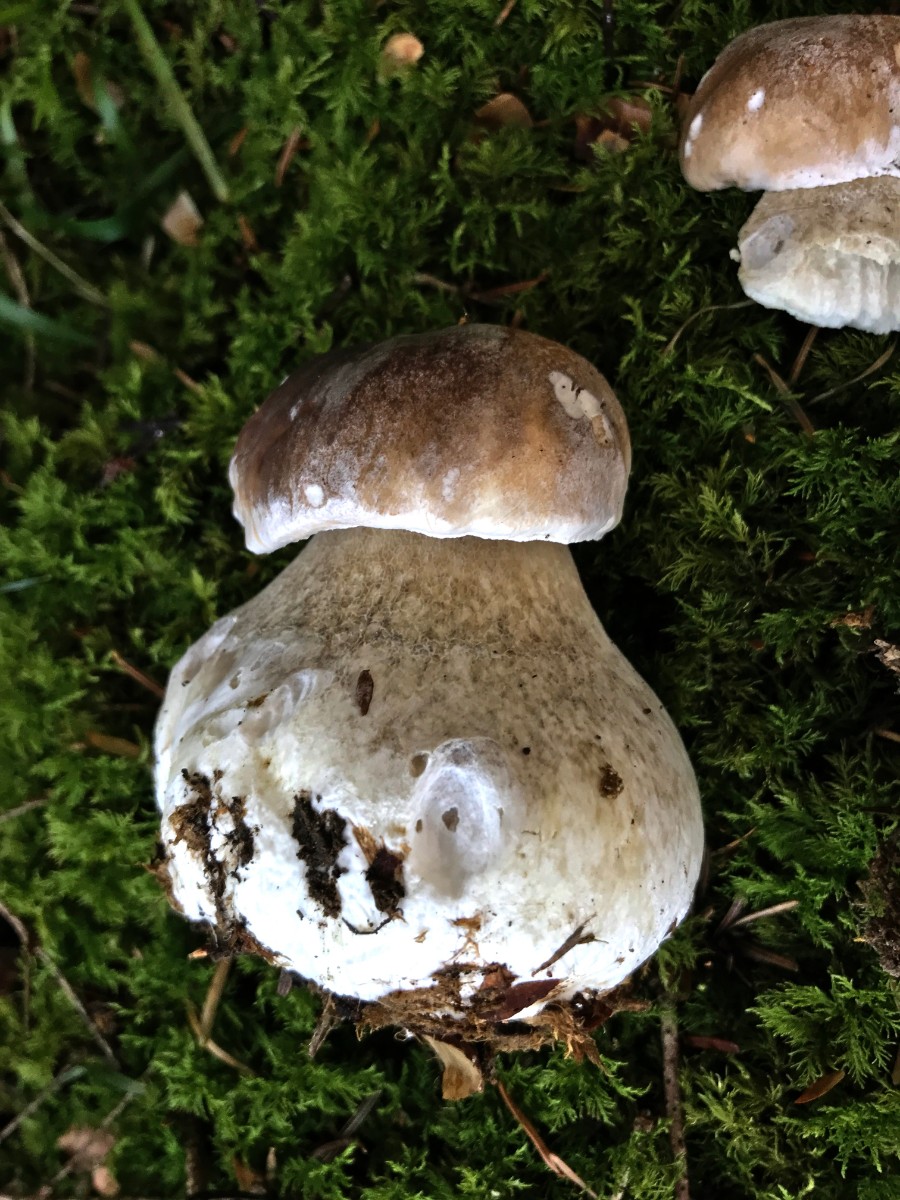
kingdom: Fungi
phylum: Basidiomycota
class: Agaricomycetes
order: Boletales
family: Boletaceae
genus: Boletus
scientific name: Boletus edulis
